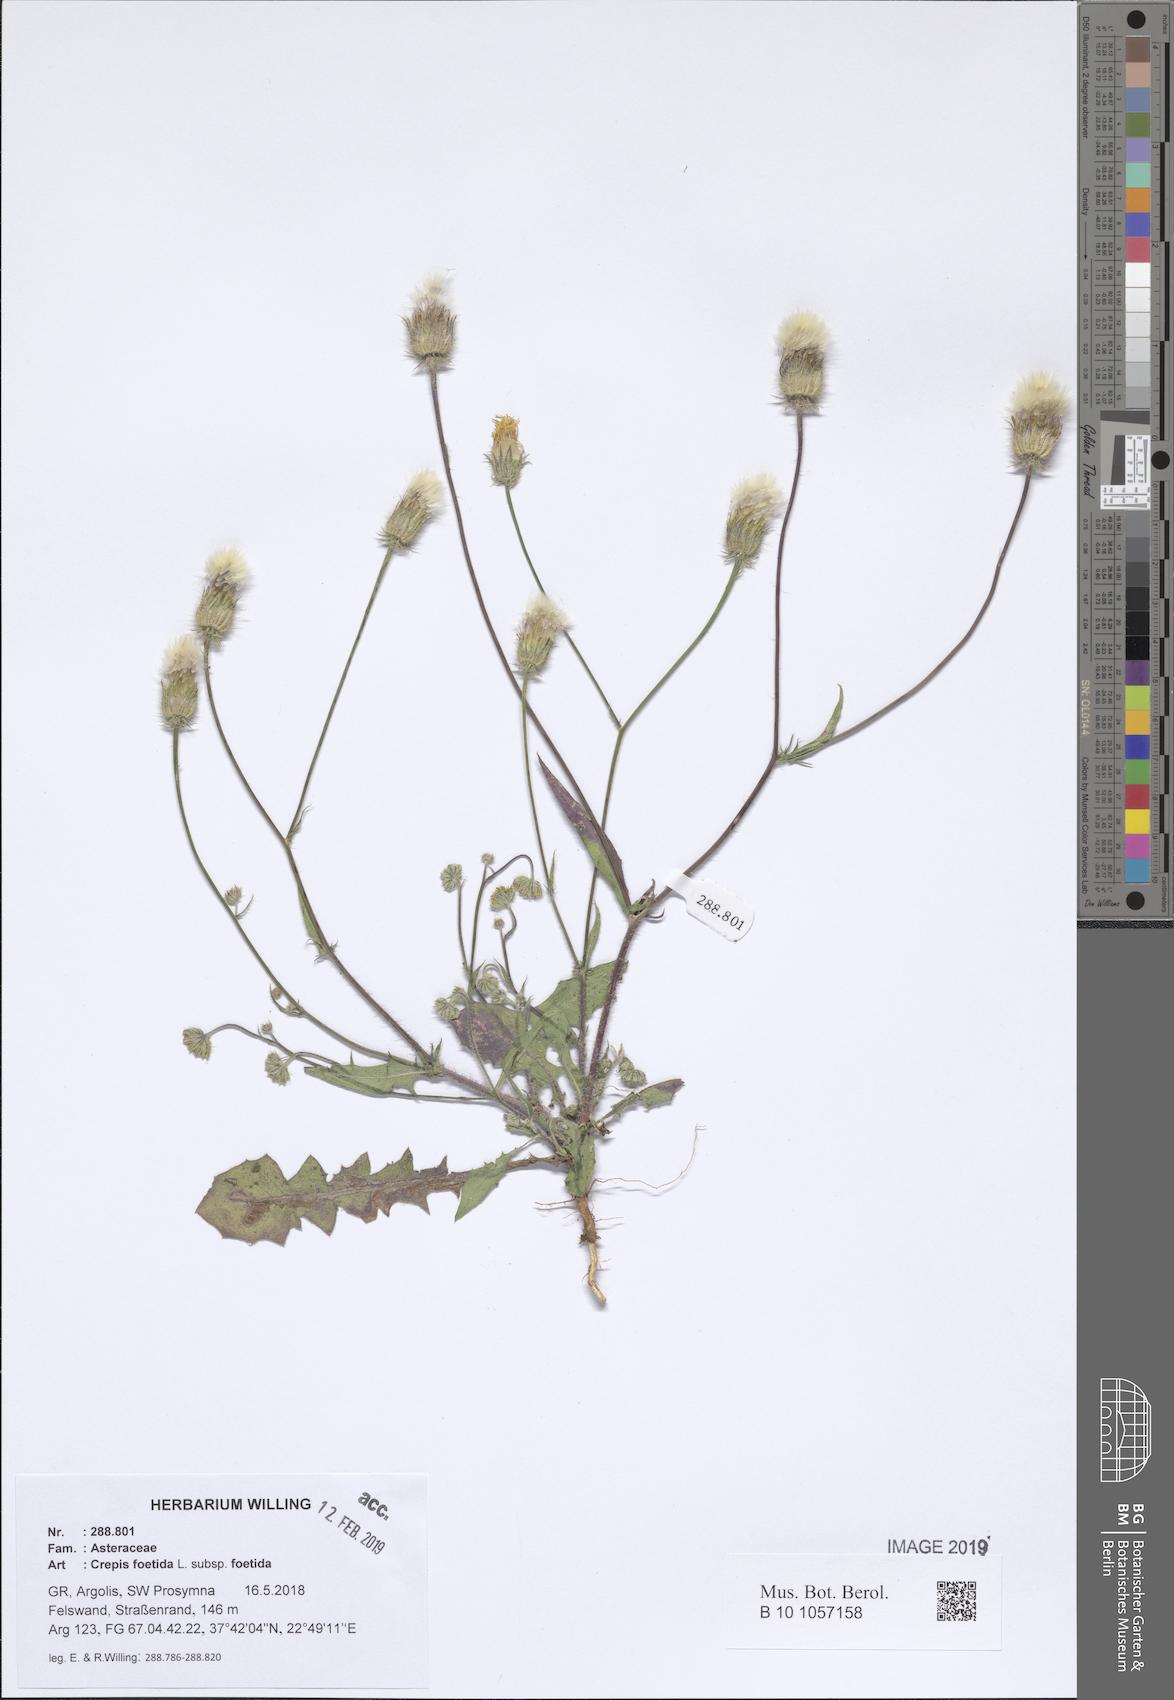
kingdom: Plantae
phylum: Tracheophyta
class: Magnoliopsida
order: Asterales
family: Asteraceae
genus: Crepis
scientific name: Crepis foetida
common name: Stinking hawk's-beard
